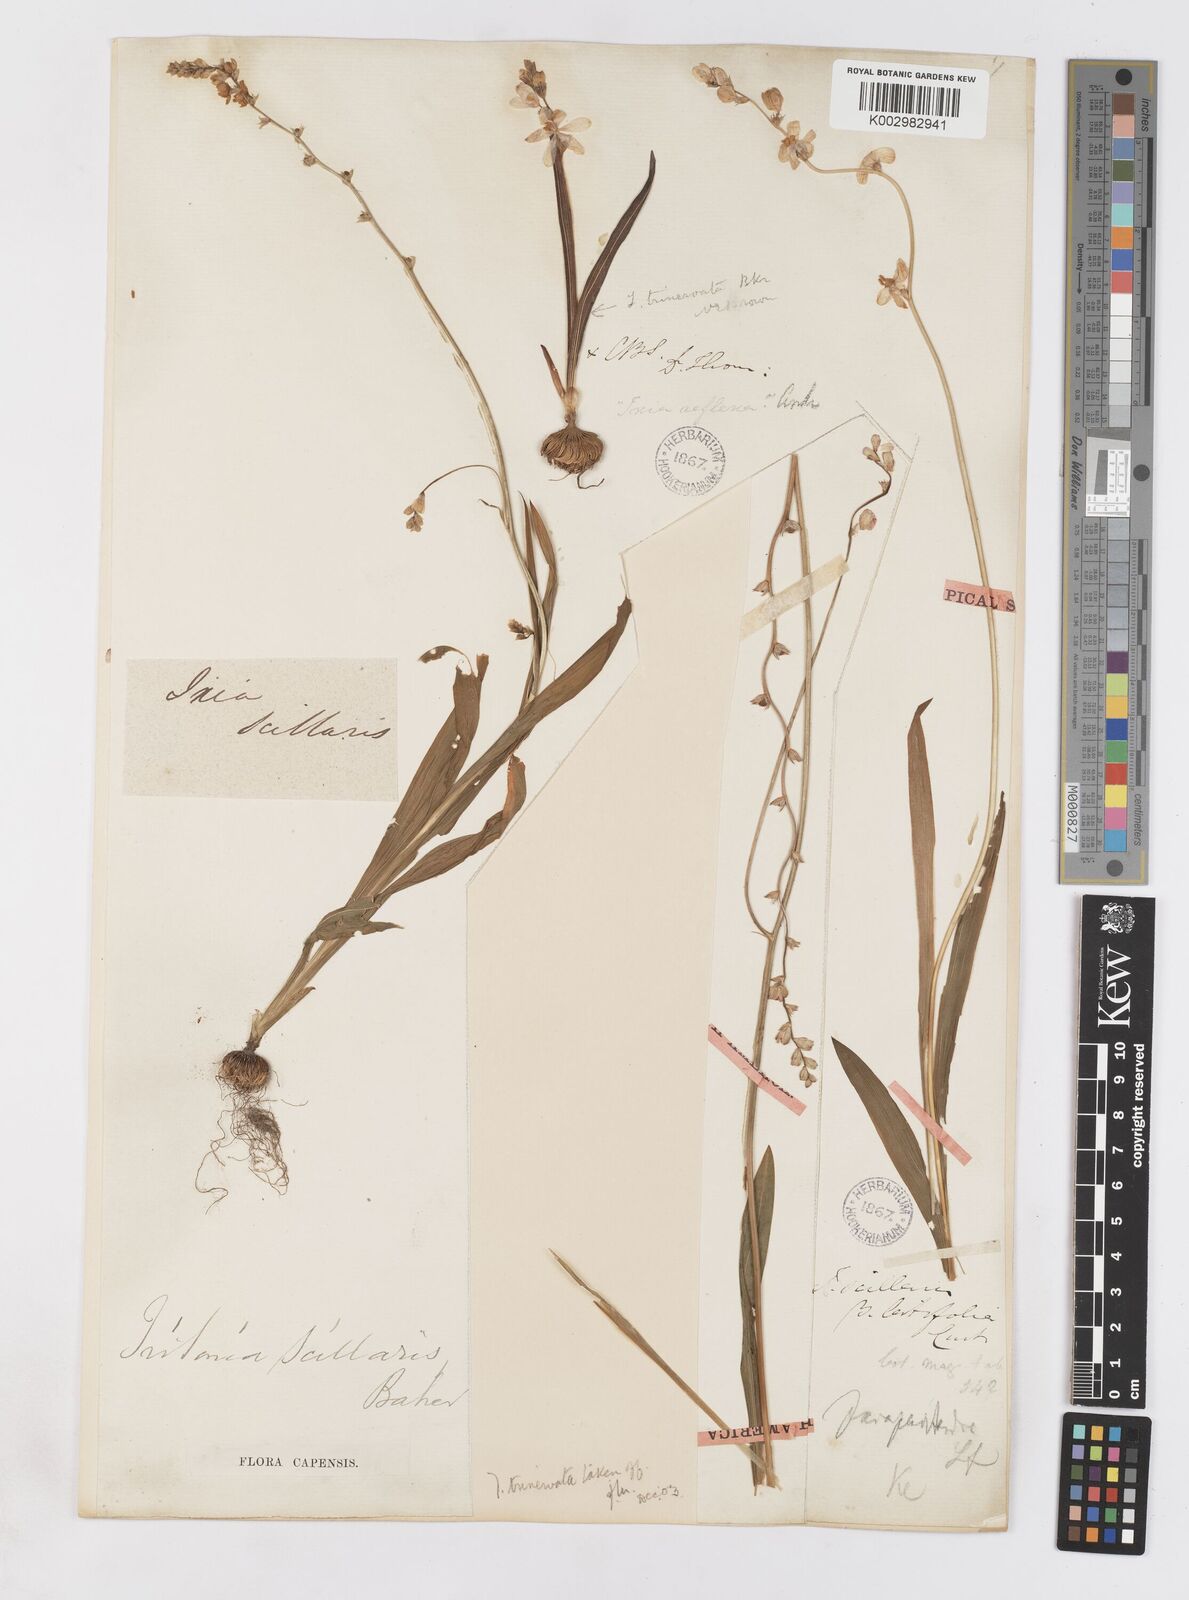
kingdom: Plantae
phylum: Tracheophyta
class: Liliopsida
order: Asparagales
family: Iridaceae
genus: Ixia
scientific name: Ixia scillaris
